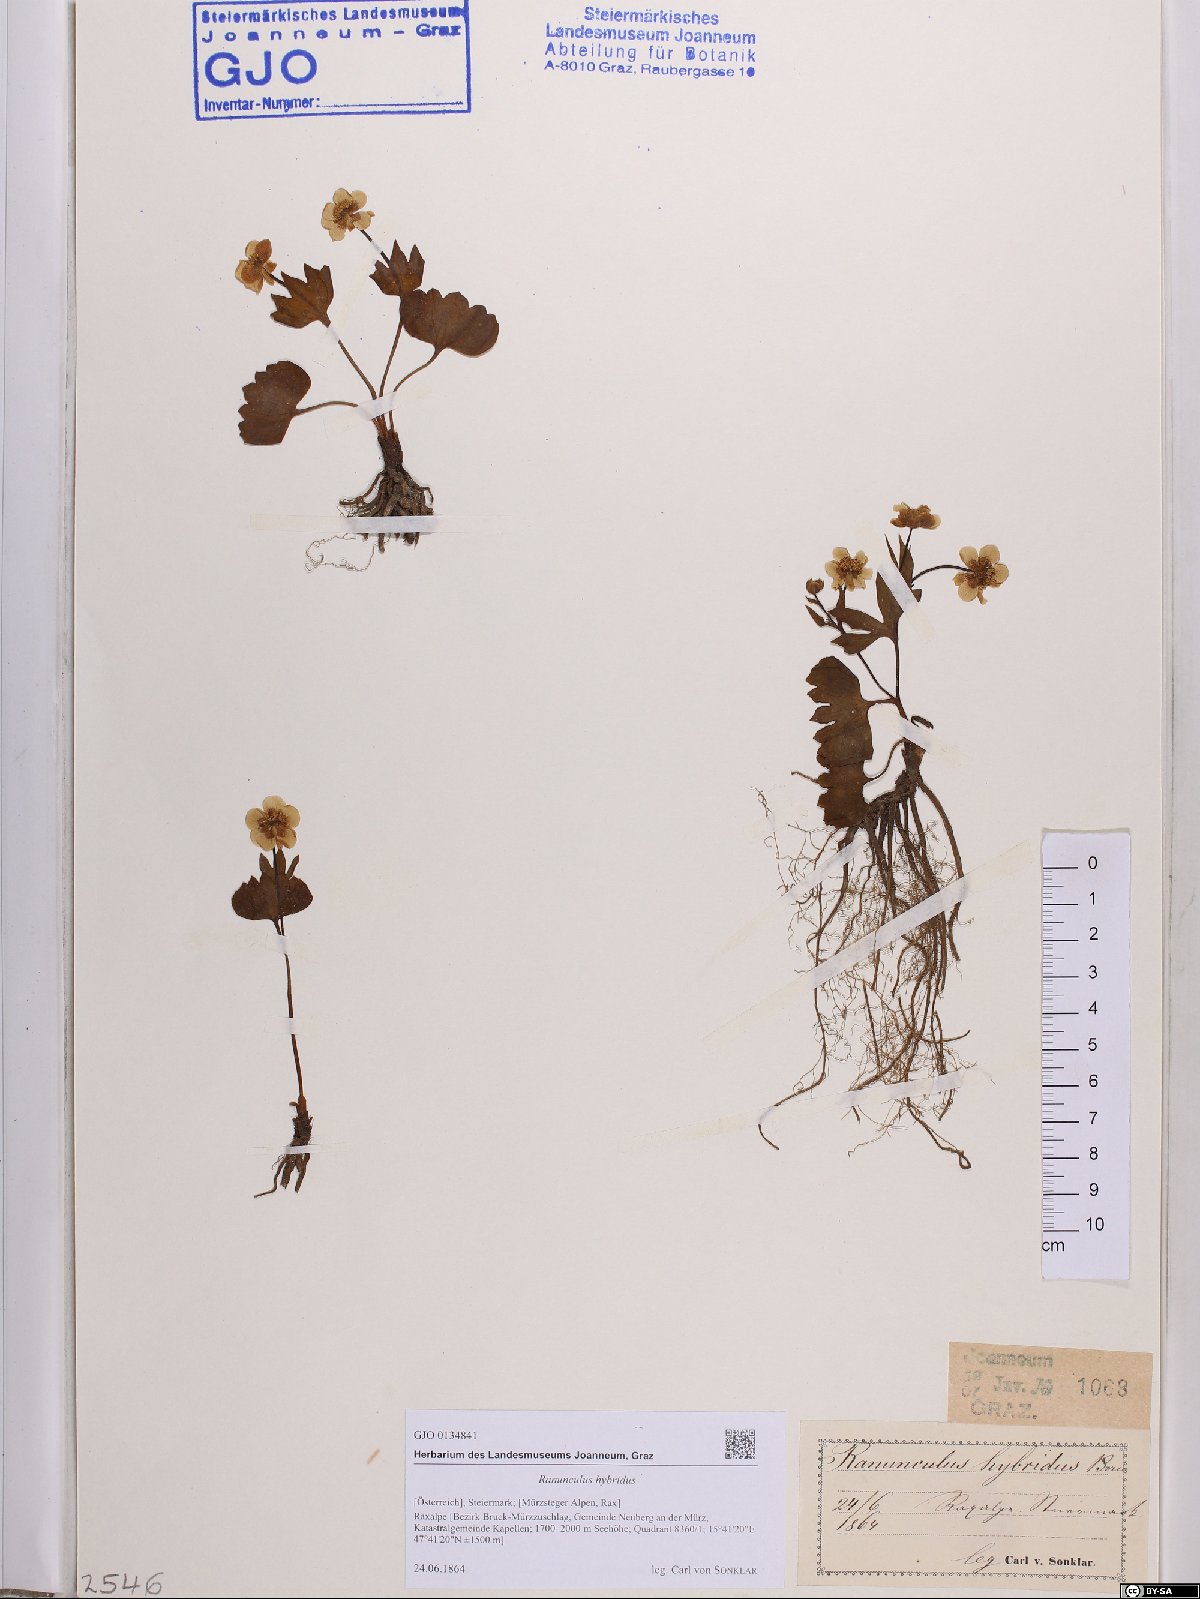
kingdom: Plantae
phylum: Tracheophyta
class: Magnoliopsida
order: Ranunculales
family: Ranunculaceae
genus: Ranunculus
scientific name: Ranunculus hybridus
